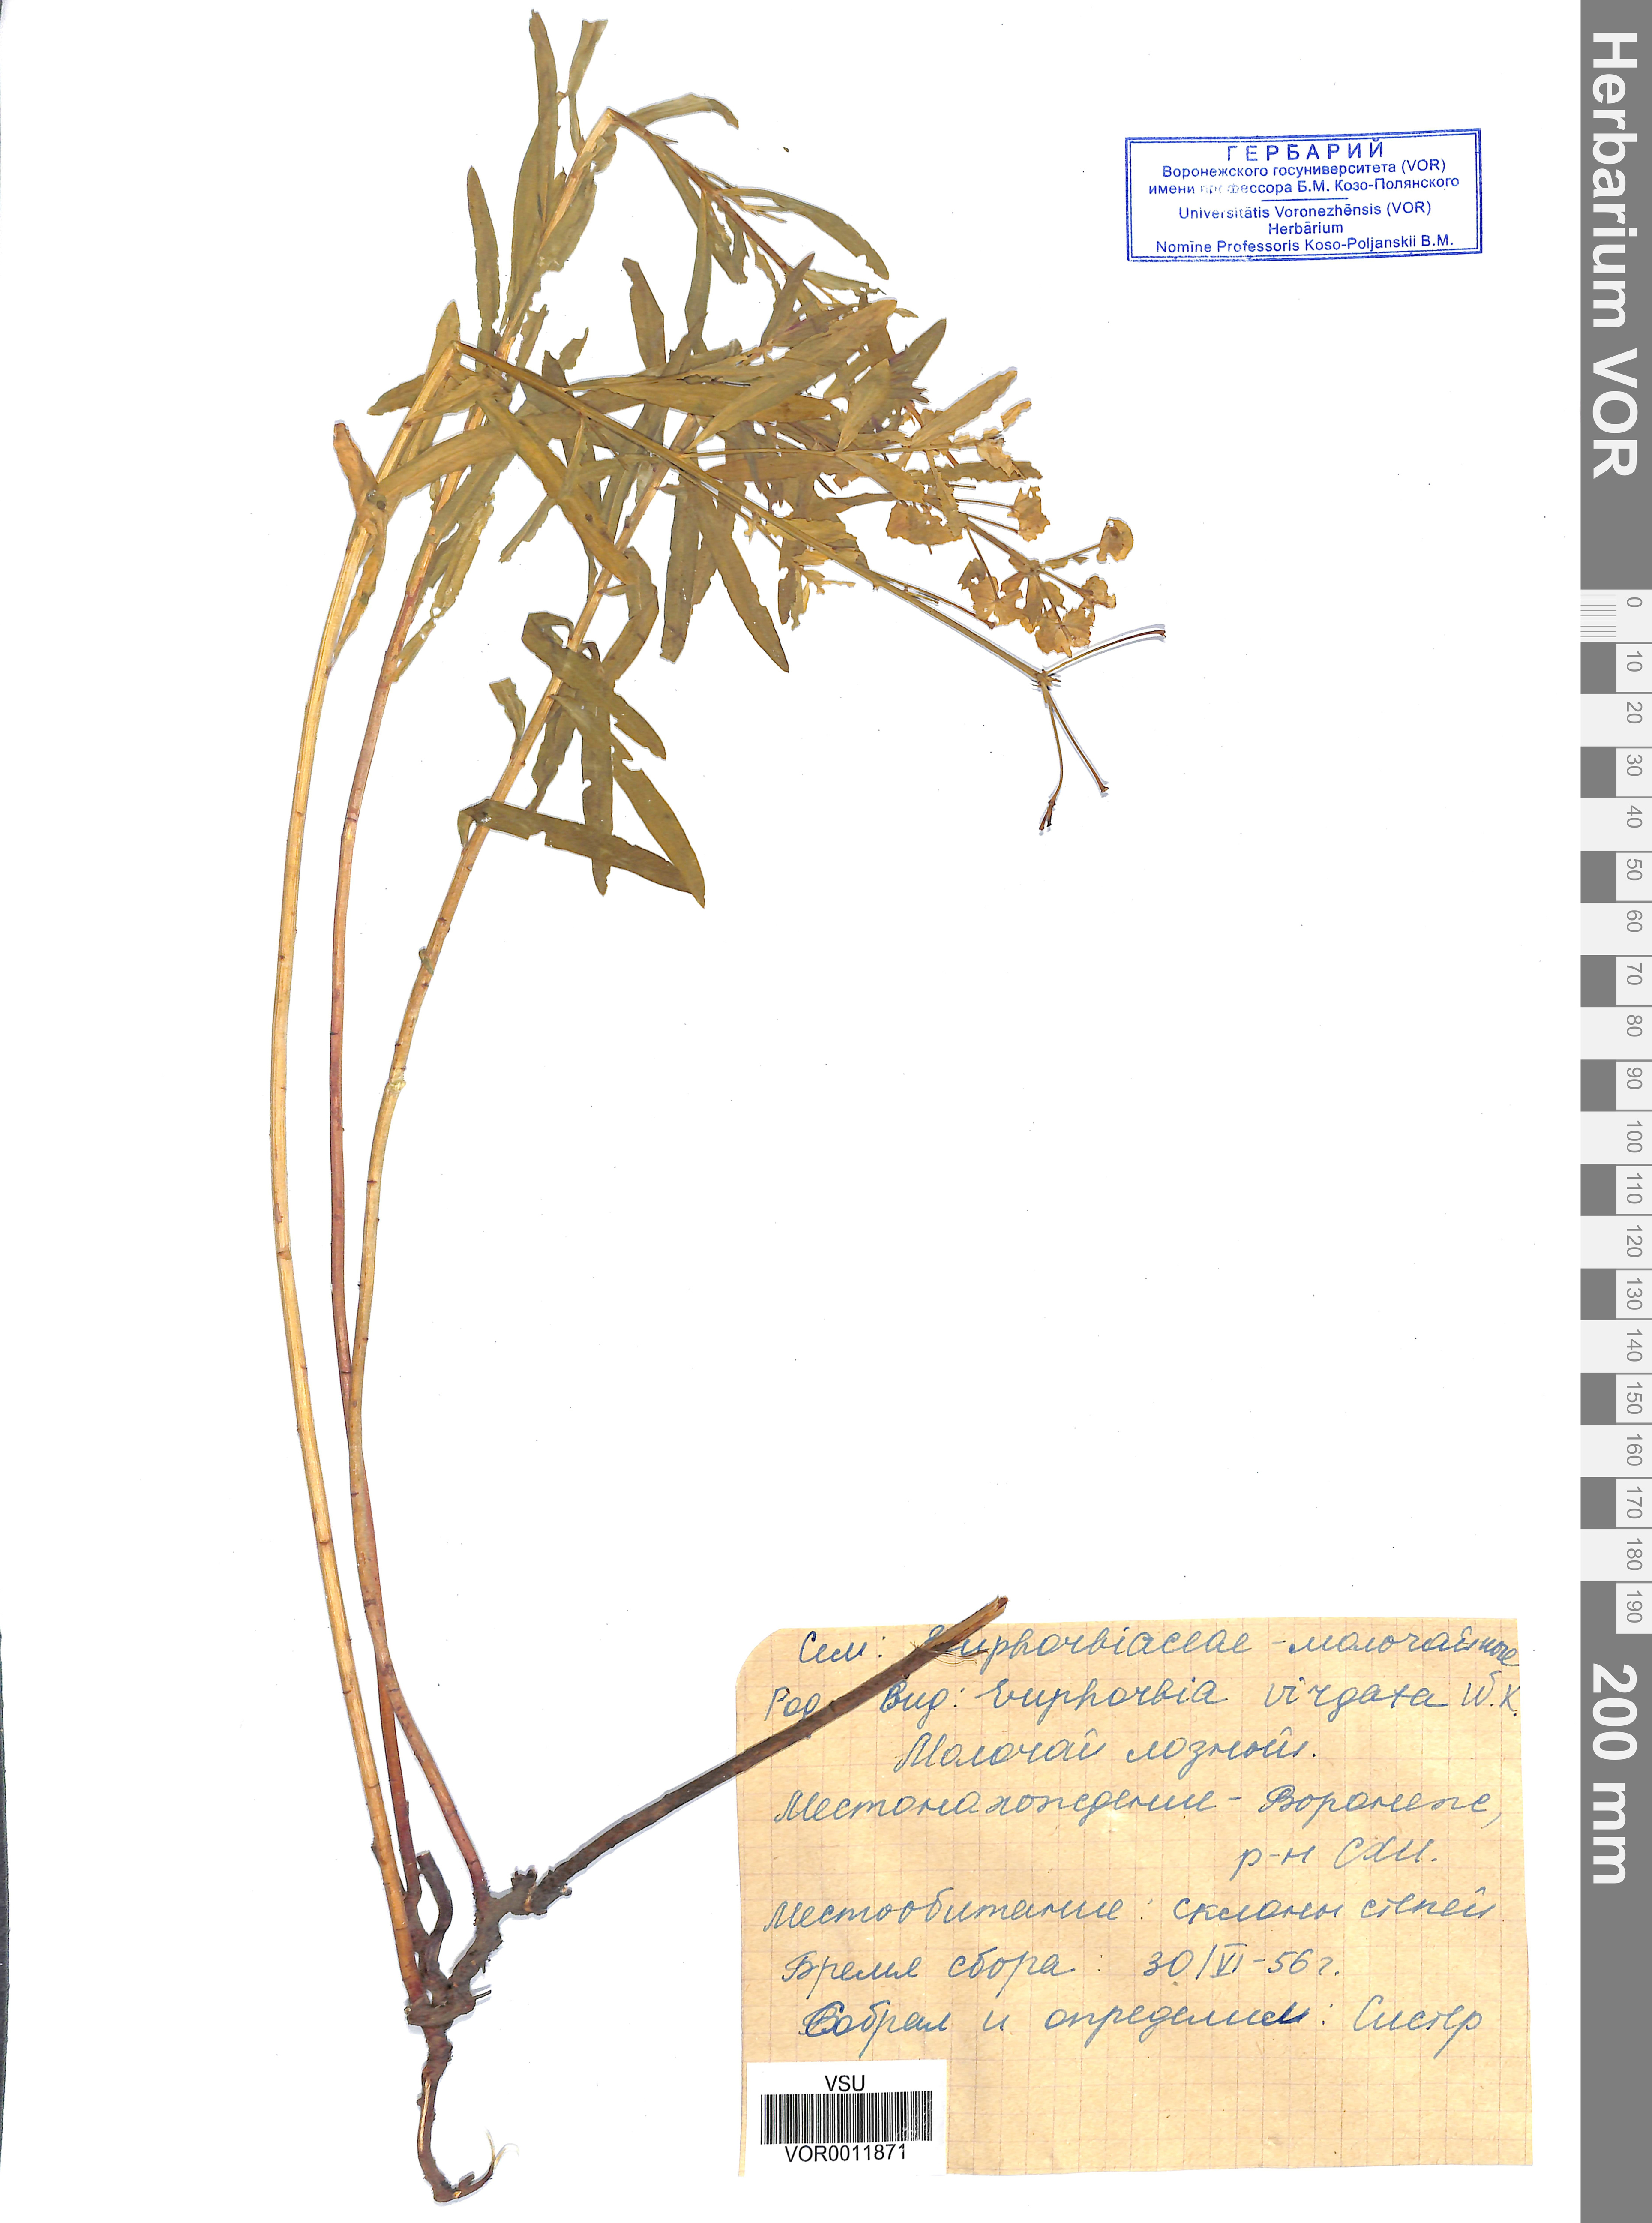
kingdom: Plantae
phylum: Tracheophyta
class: Magnoliopsida
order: Malpighiales
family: Euphorbiaceae
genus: Euphorbia
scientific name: Euphorbia virgata
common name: Leafy spurge
